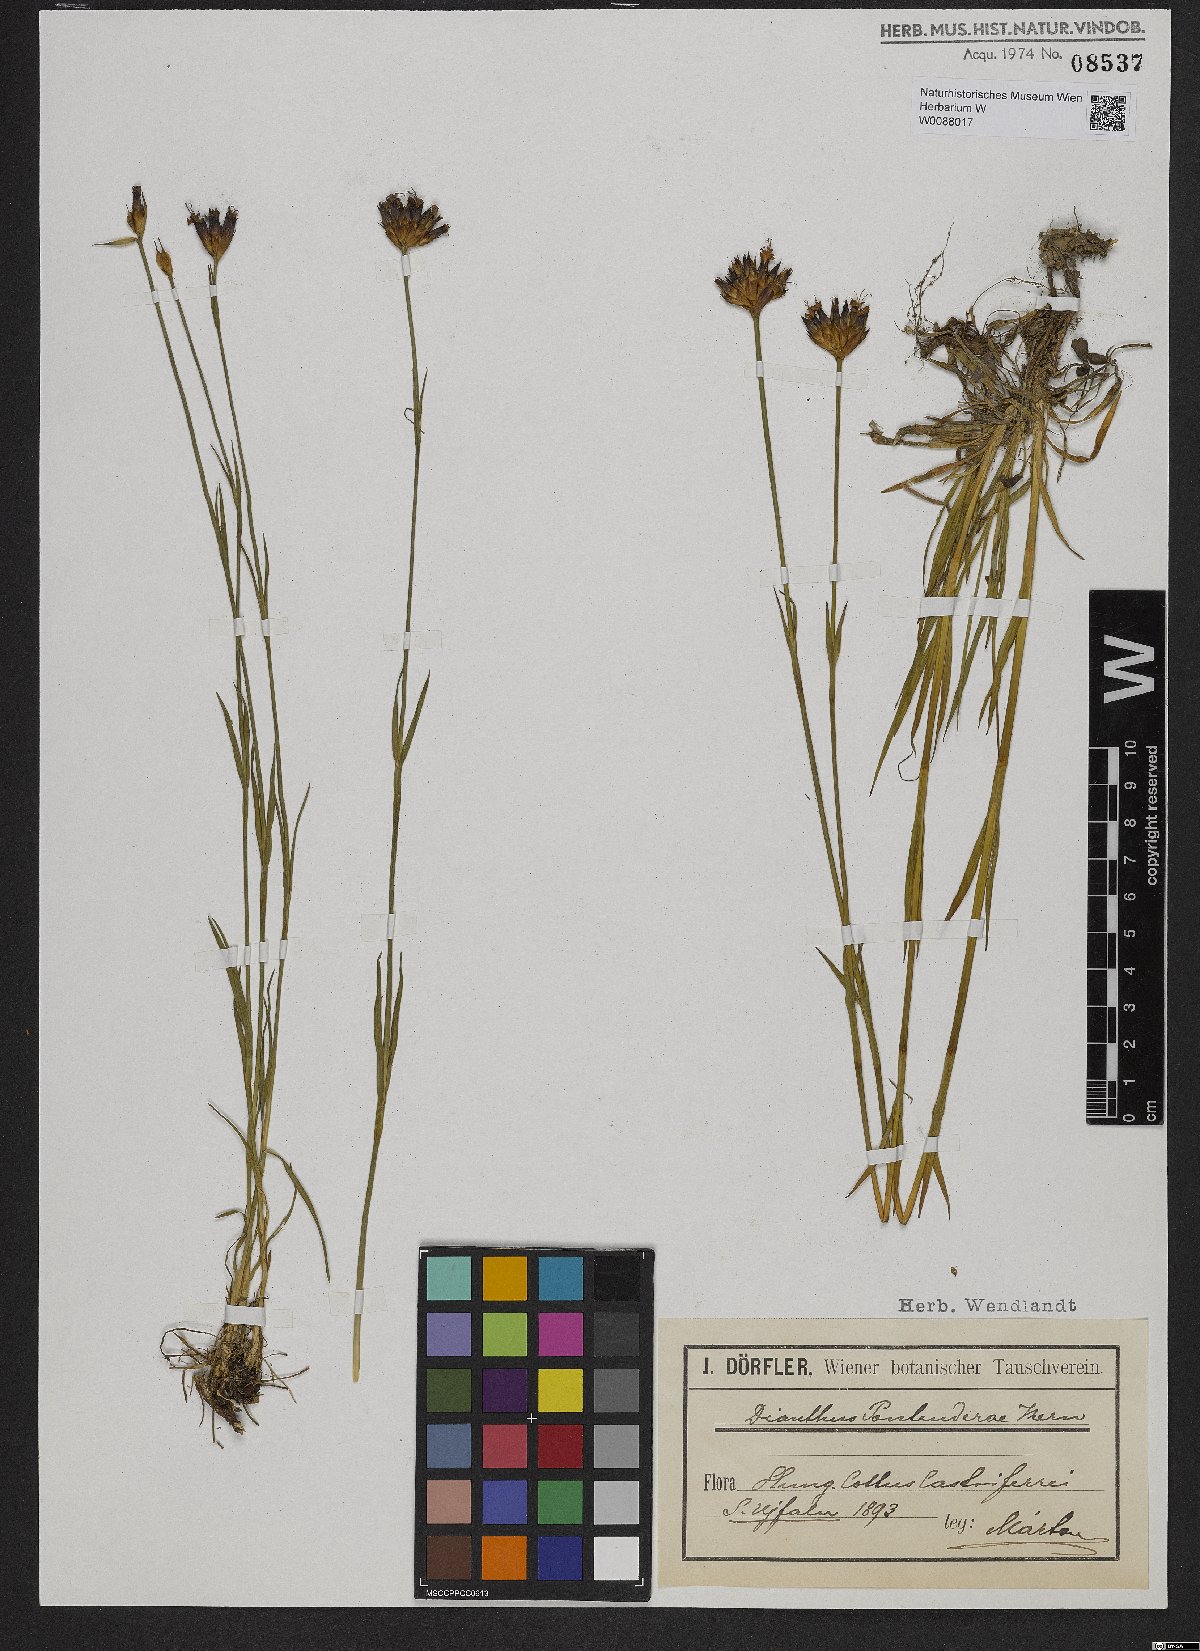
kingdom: Plantae
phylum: Tracheophyta
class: Magnoliopsida
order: Caryophyllales
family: Caryophyllaceae
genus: Dianthus
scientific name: Dianthus pontederae
